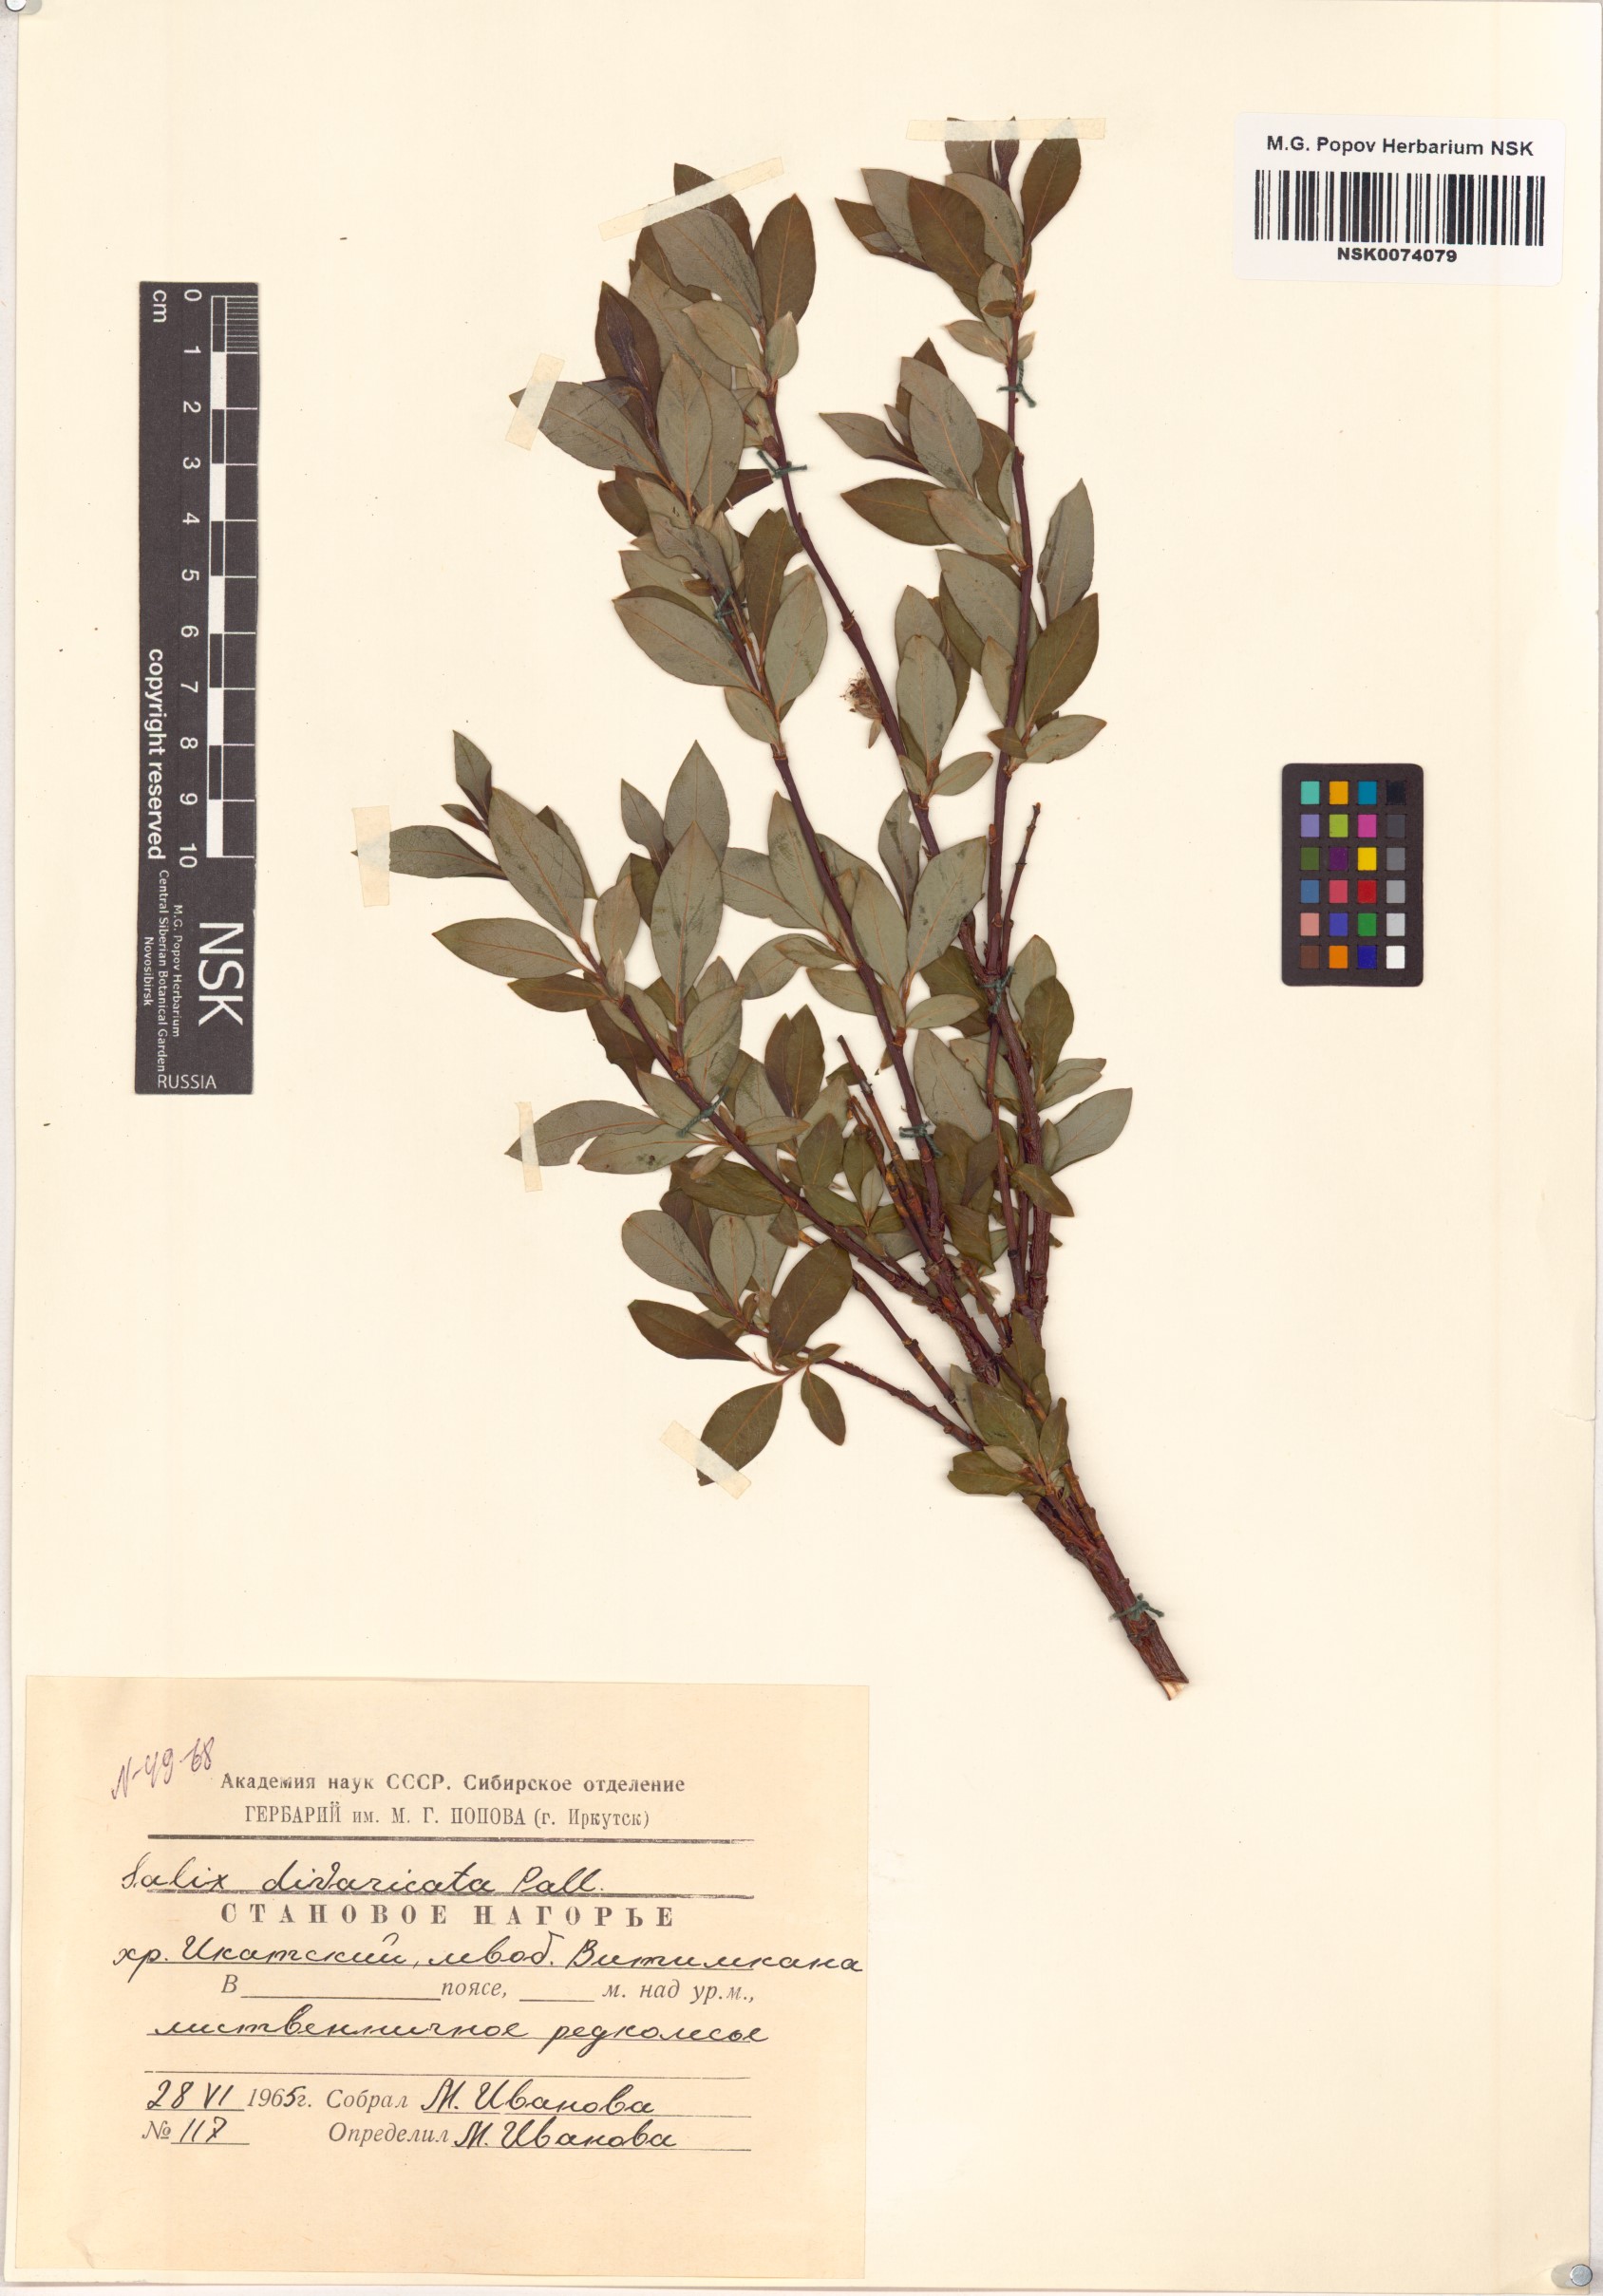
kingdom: Plantae
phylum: Tracheophyta
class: Magnoliopsida
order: Malpighiales
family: Salicaceae
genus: Salix
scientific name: Salix divaricata
